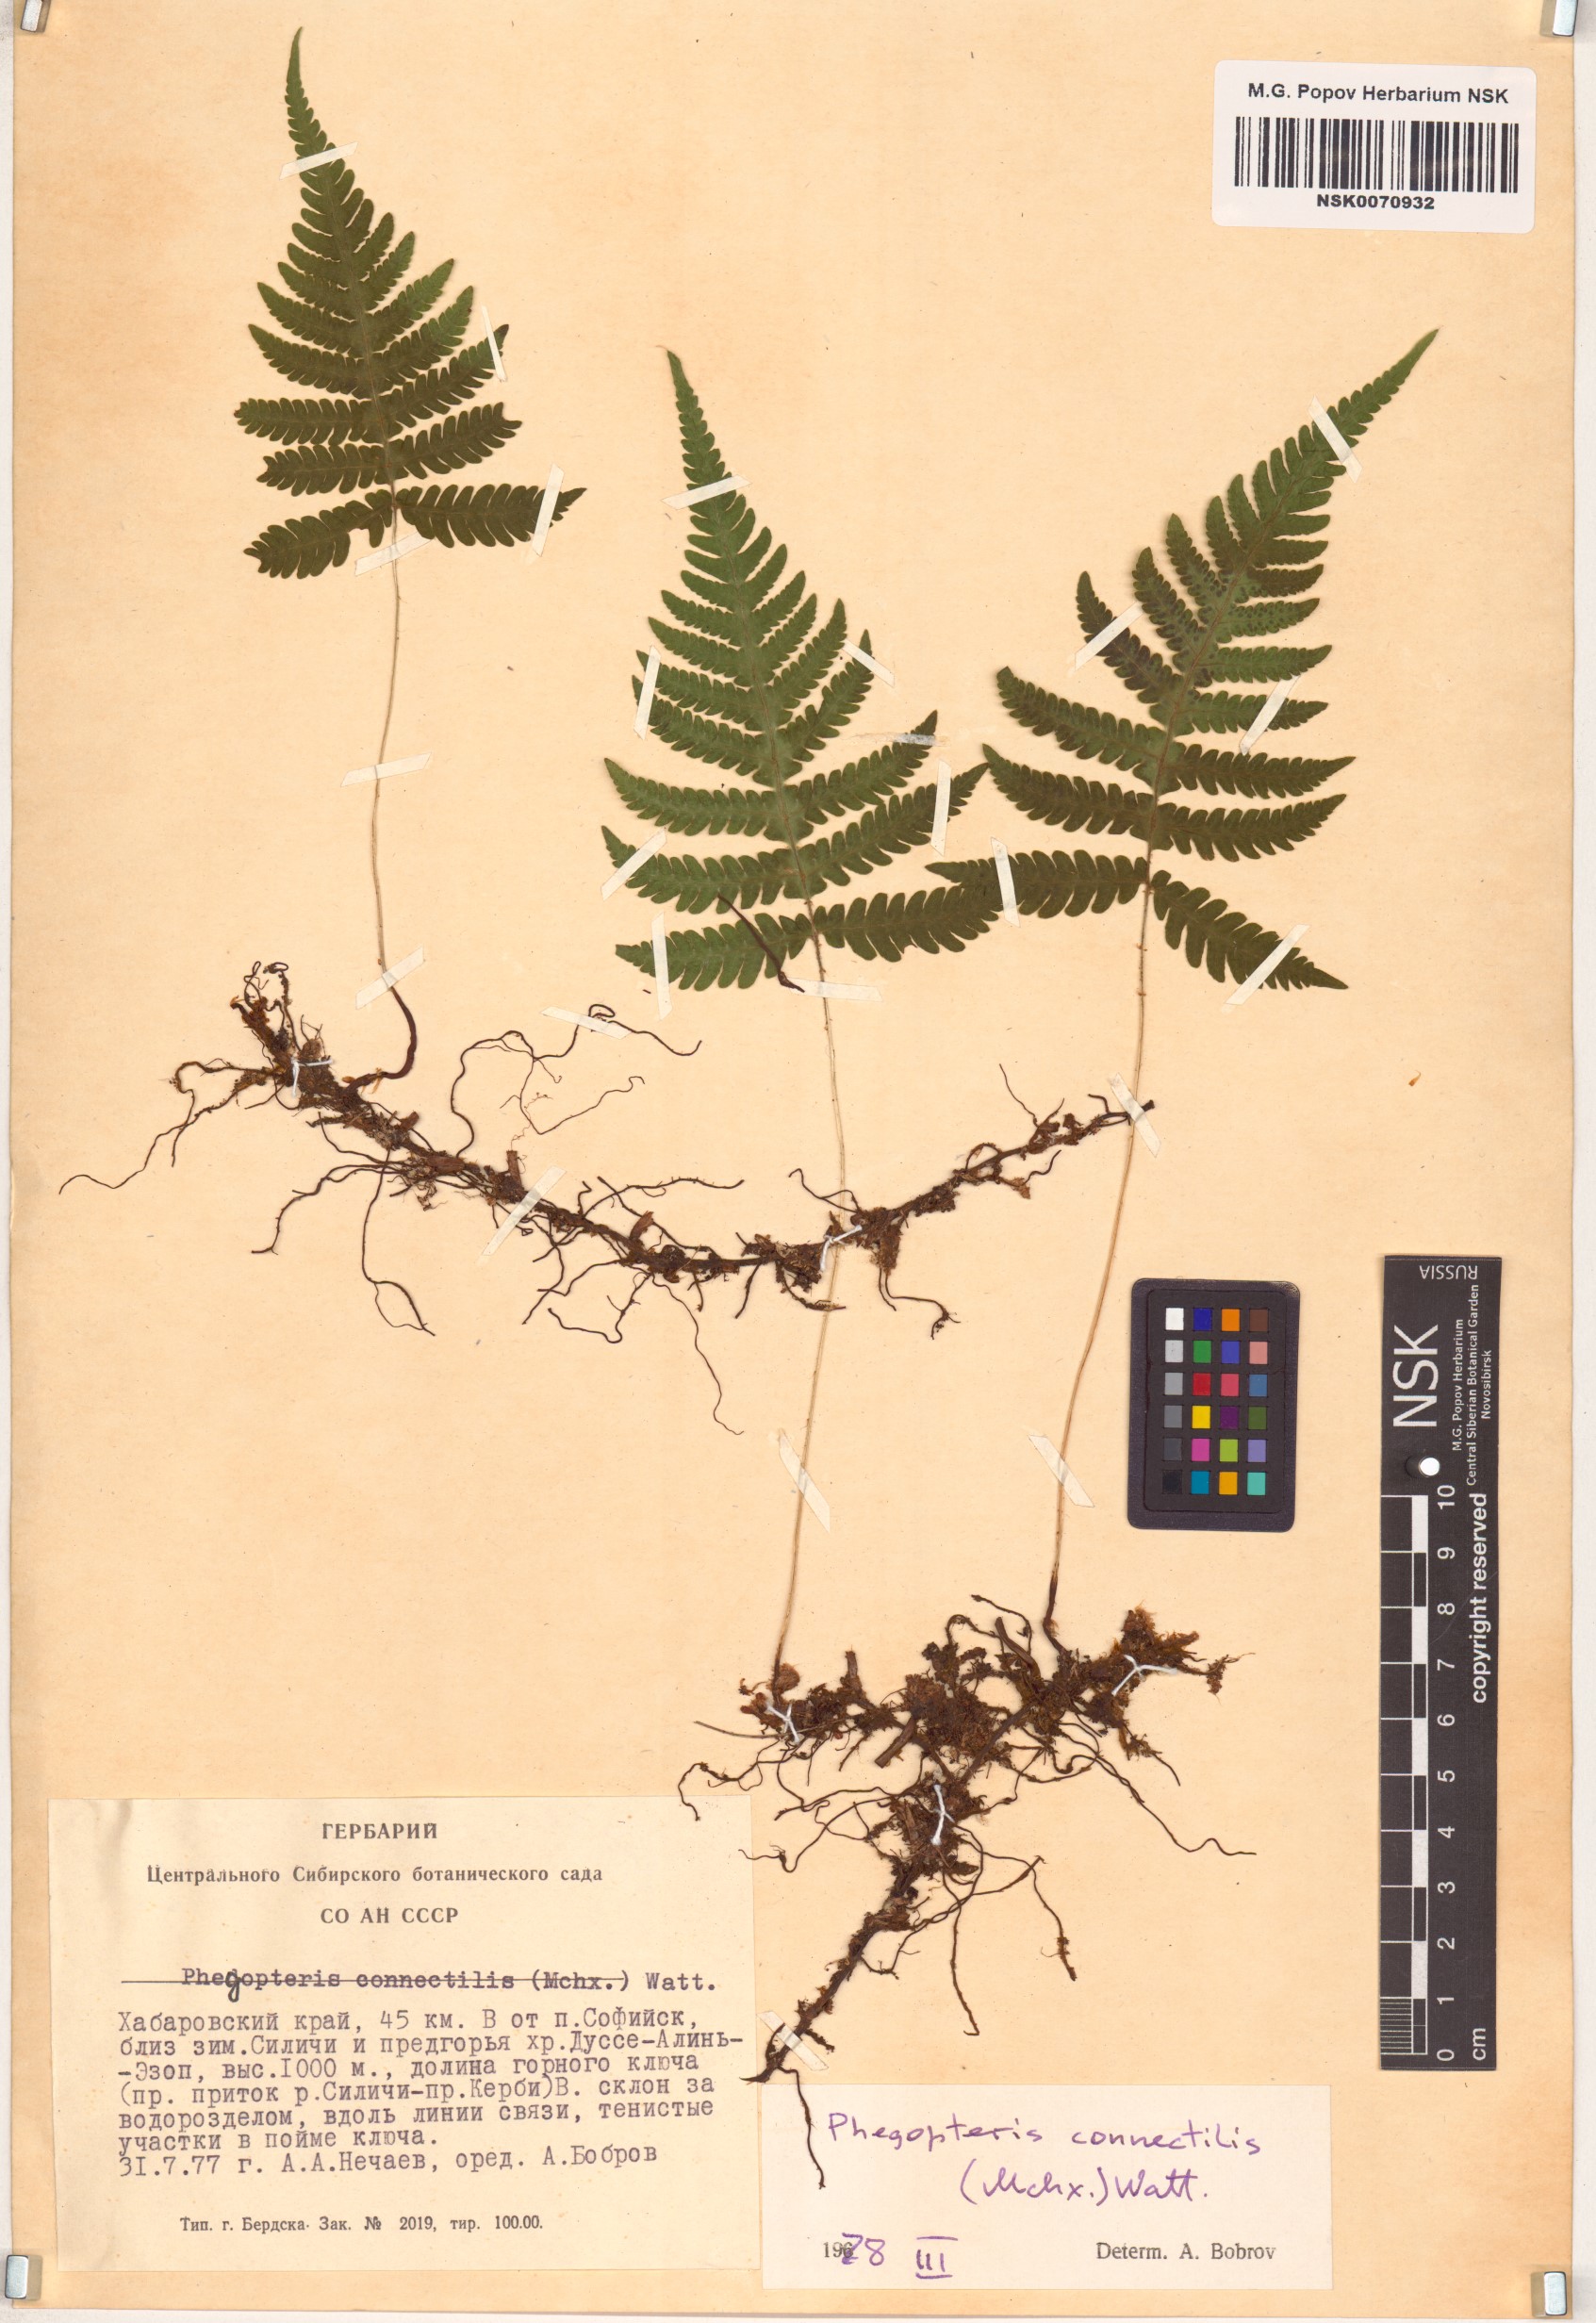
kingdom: Plantae
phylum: Tracheophyta
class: Polypodiopsida
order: Polypodiales
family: Thelypteridaceae
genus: Phegopteris
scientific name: Phegopteris connectilis
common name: Beech fern
